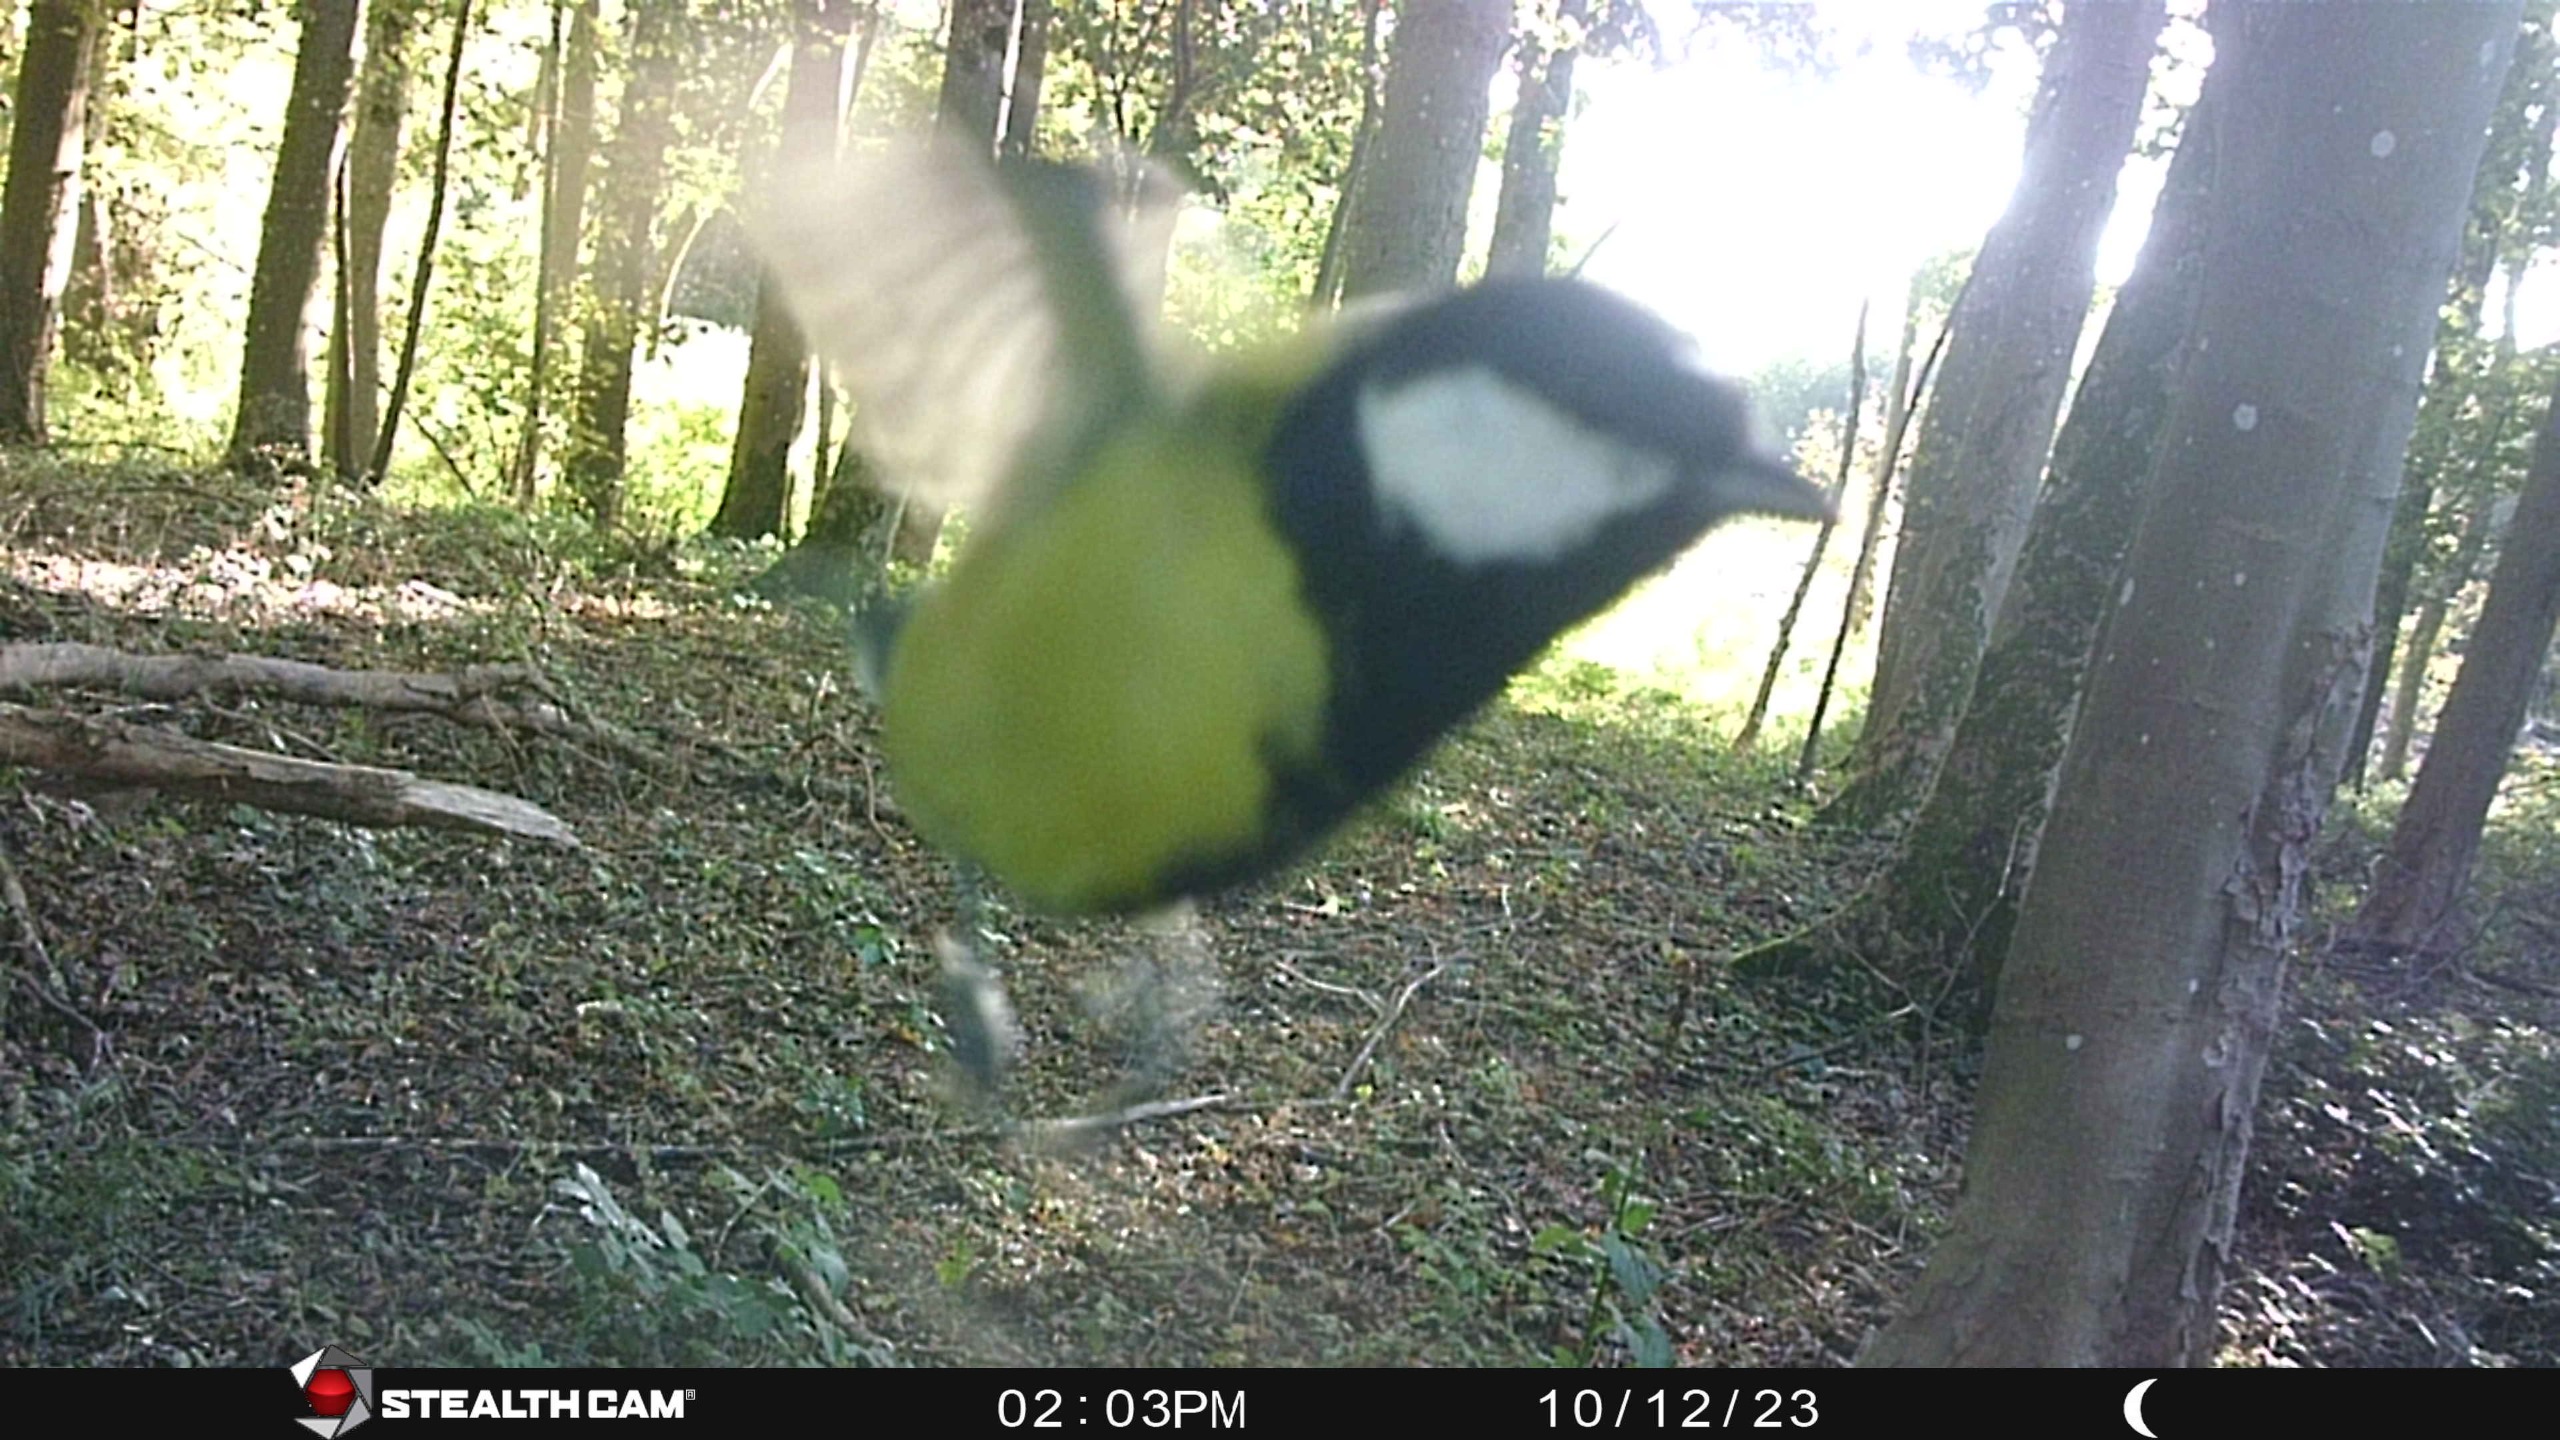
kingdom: Animalia
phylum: Chordata
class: Aves
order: Passeriformes
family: Paridae
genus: Parus
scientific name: Parus major
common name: Musvit
